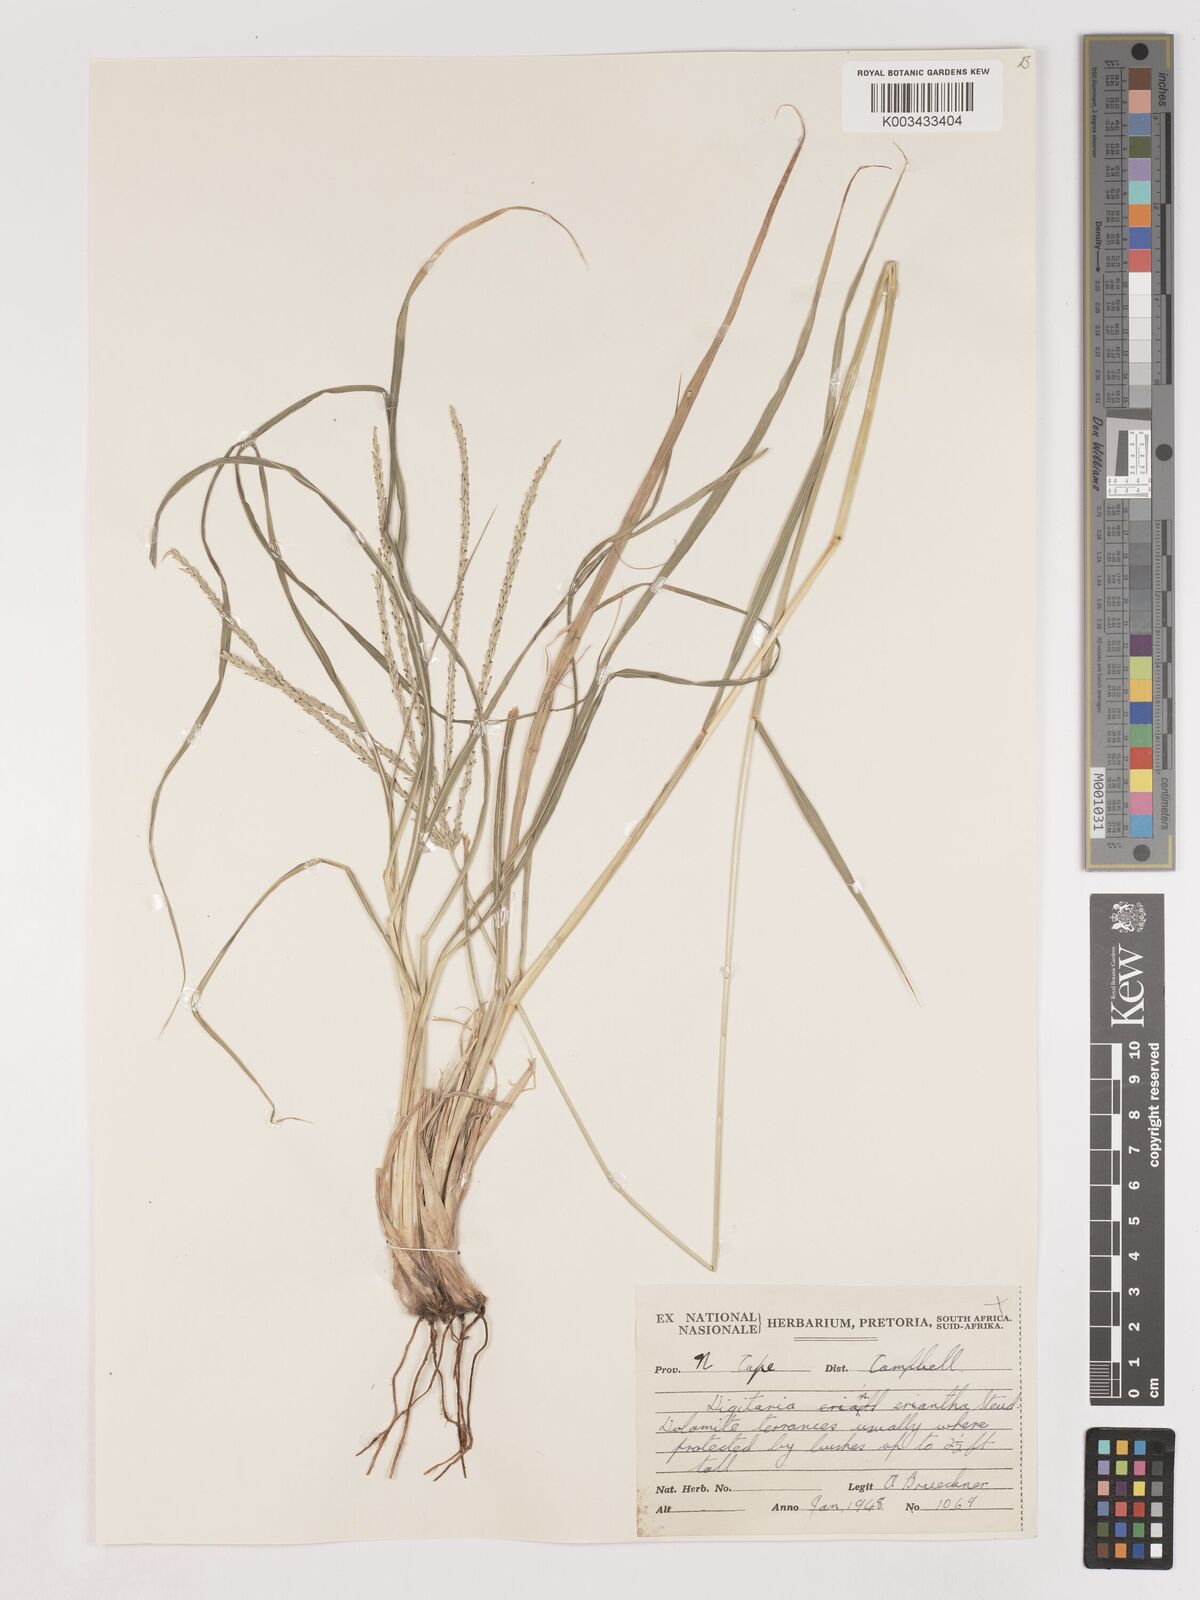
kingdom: Plantae
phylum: Tracheophyta
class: Liliopsida
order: Poales
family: Poaceae
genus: Digitaria
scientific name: Digitaria eriantha
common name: Digitgrass
